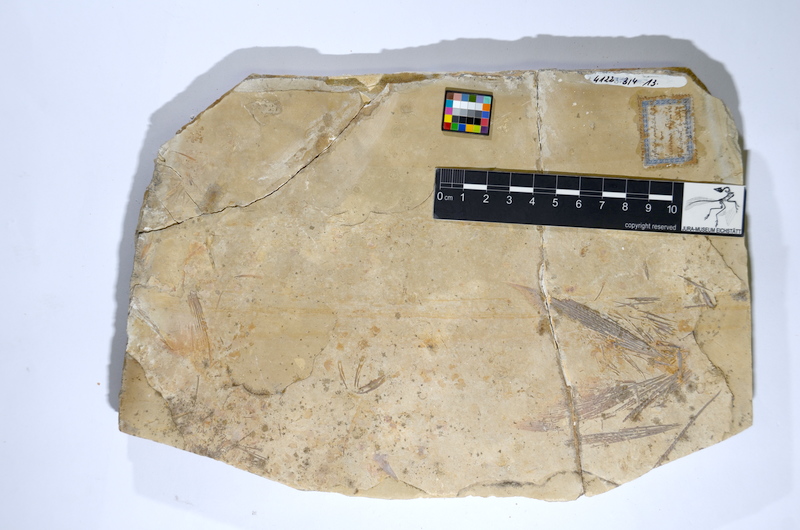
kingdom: Animalia
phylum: Chordata
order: Amiiformes
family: Caturidae
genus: Caturus
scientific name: Caturus
